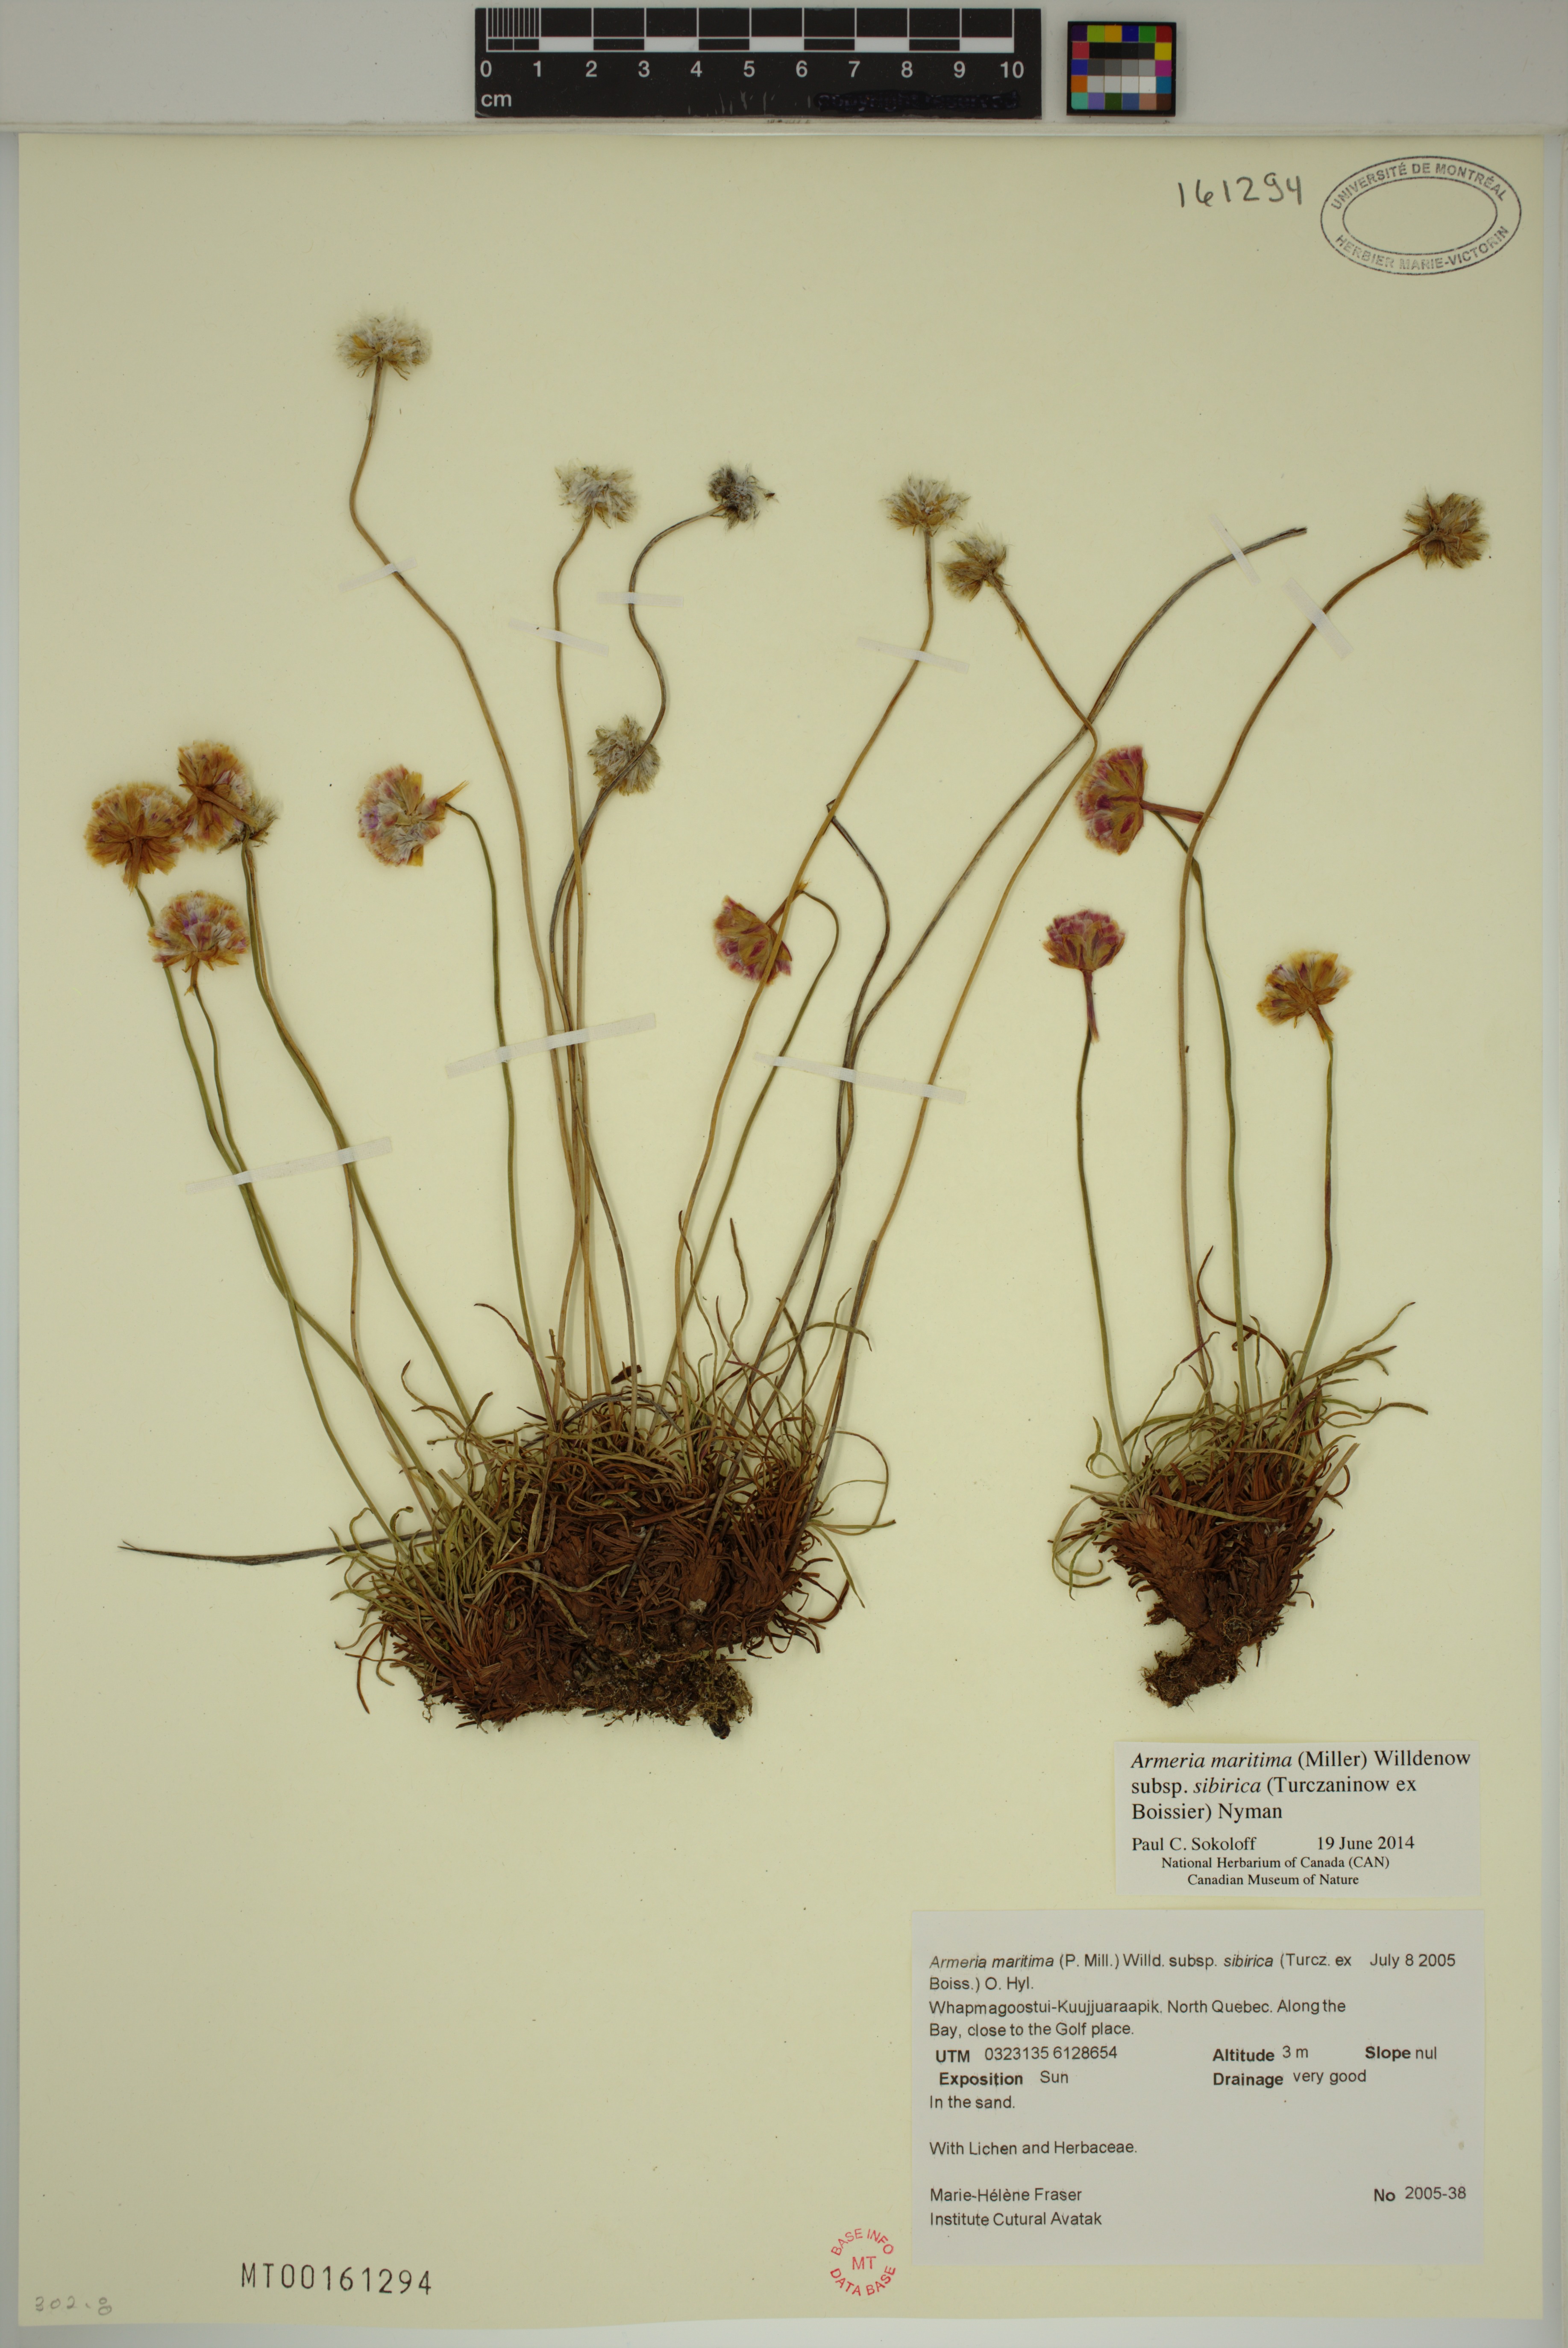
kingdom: Plantae
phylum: Tracheophyta
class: Magnoliopsida
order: Caryophyllales
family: Plumbaginaceae
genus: Armeria
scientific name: Armeria maritima
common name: Thrift
